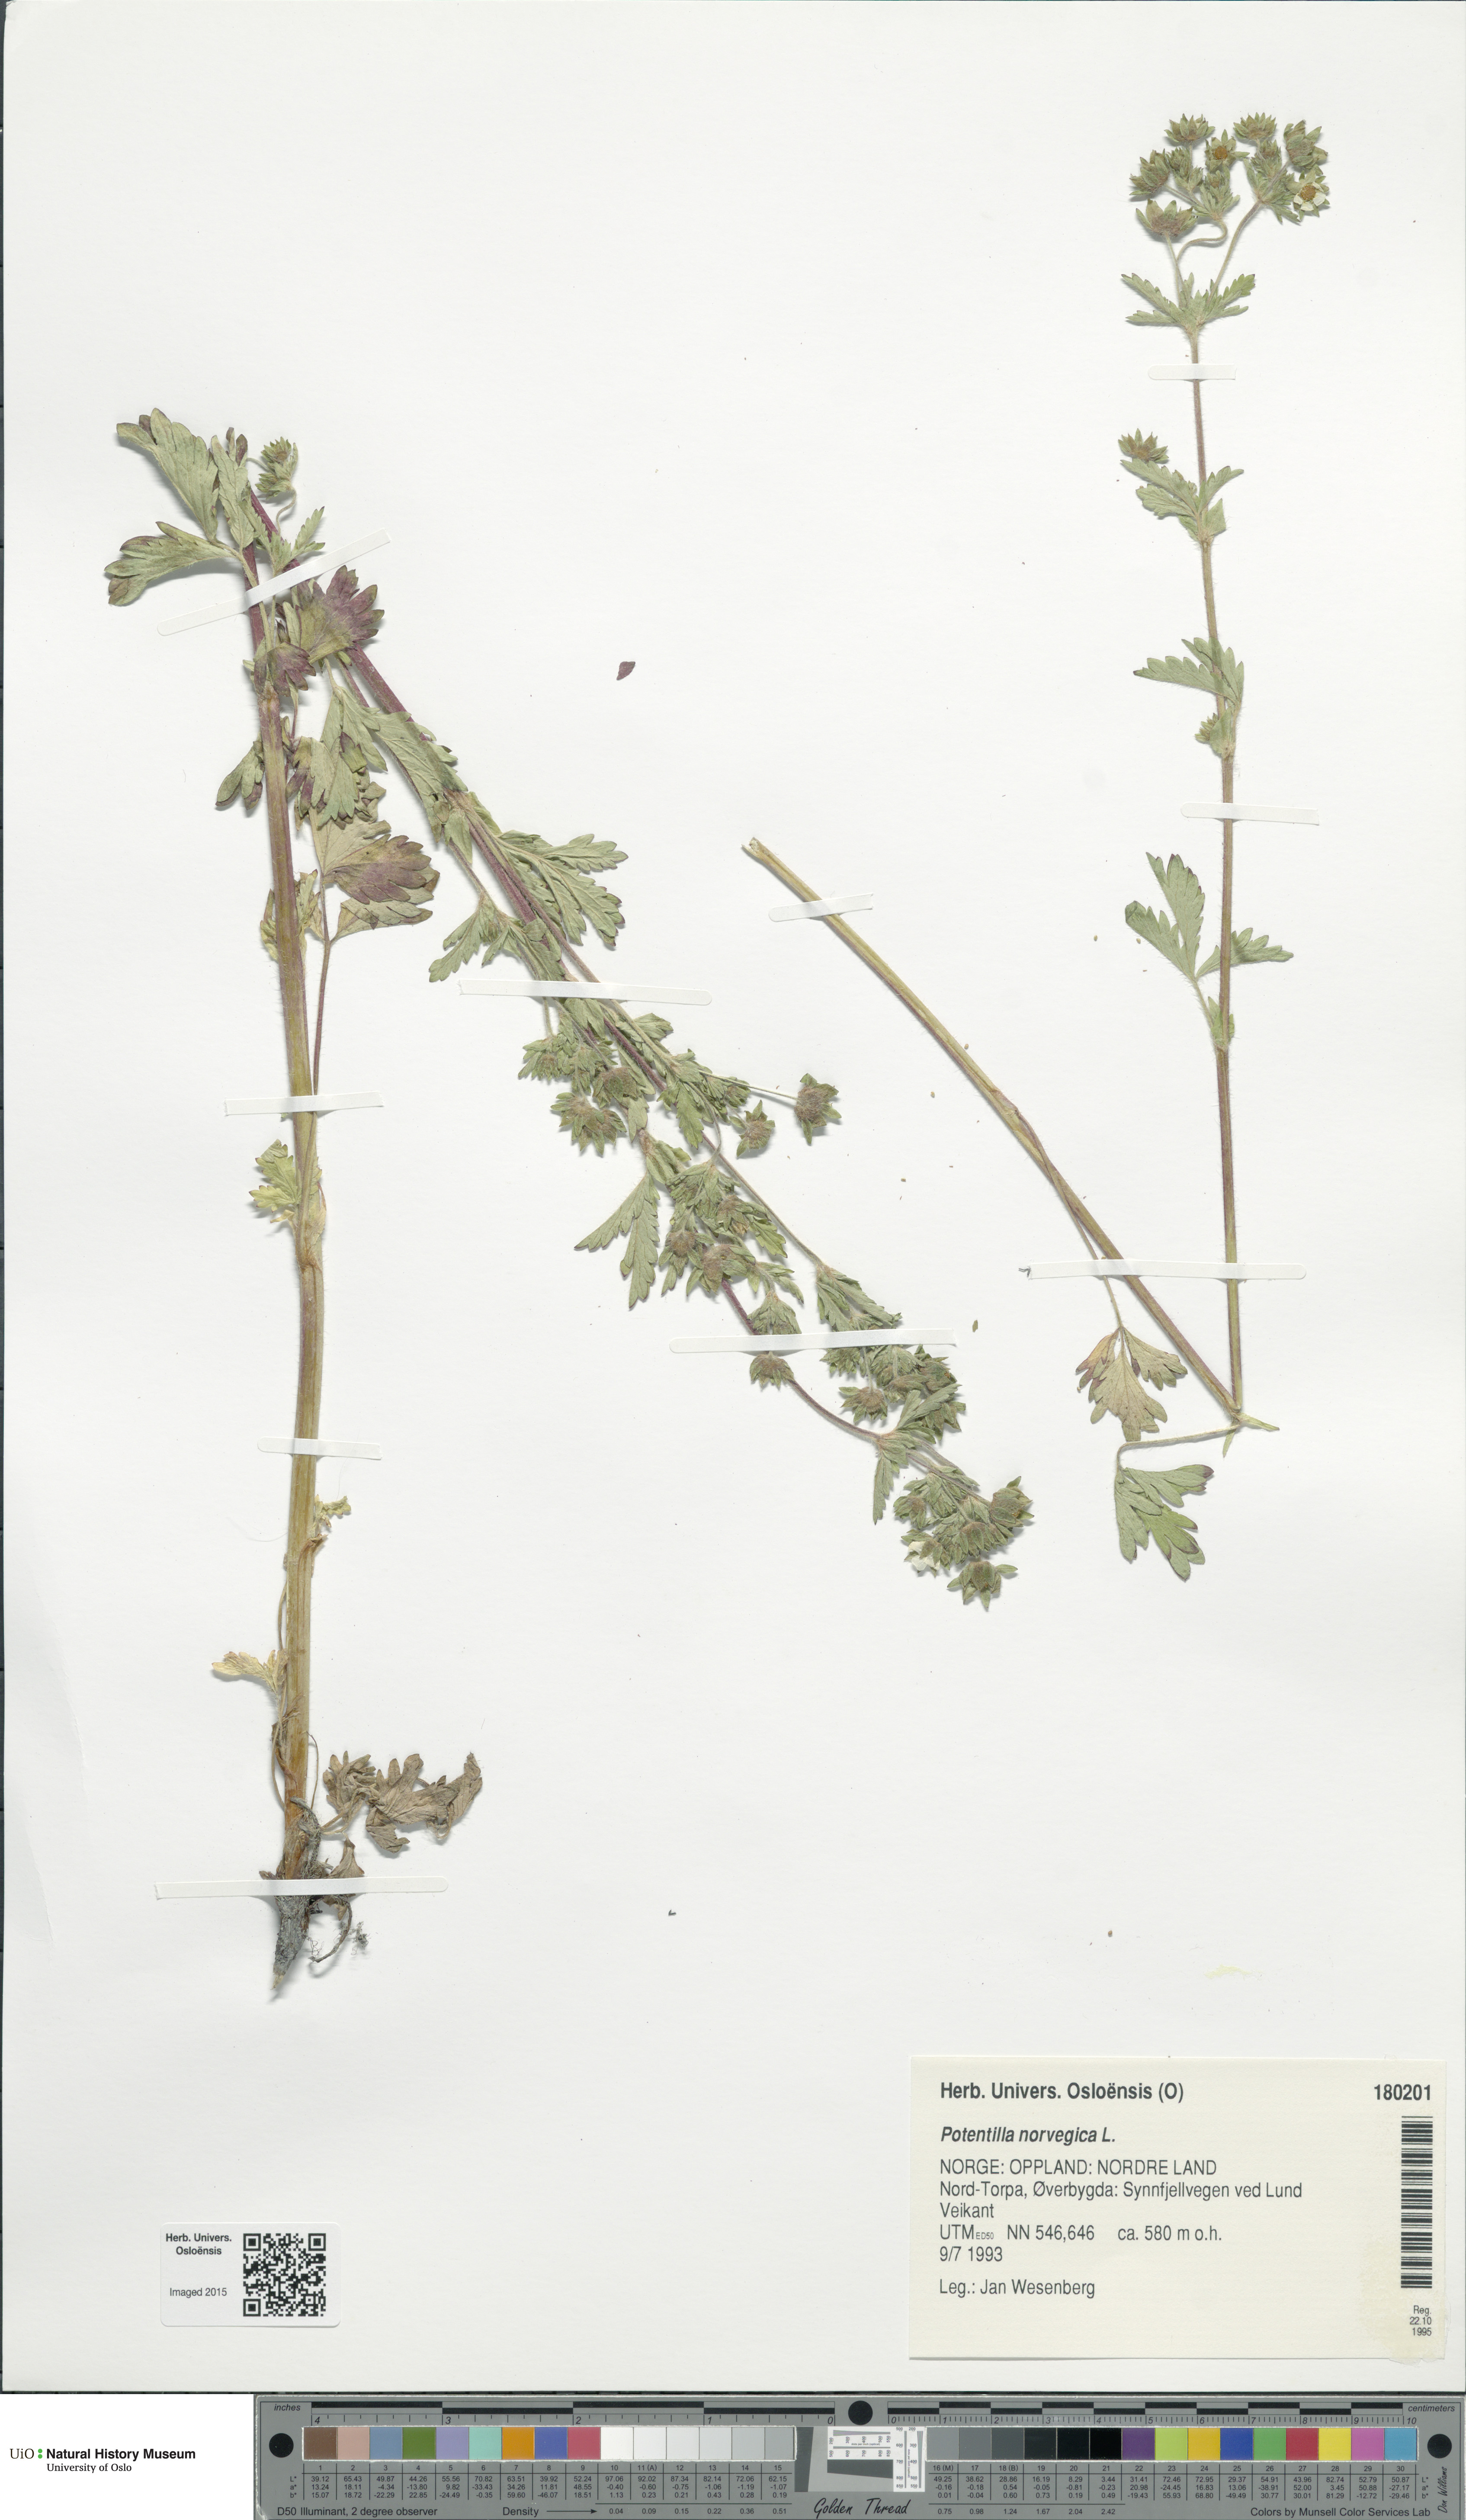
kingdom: Plantae
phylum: Tracheophyta
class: Magnoliopsida
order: Rosales
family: Rosaceae
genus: Potentilla
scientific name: Potentilla norvegica
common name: Ternate-leaved cinquefoil
